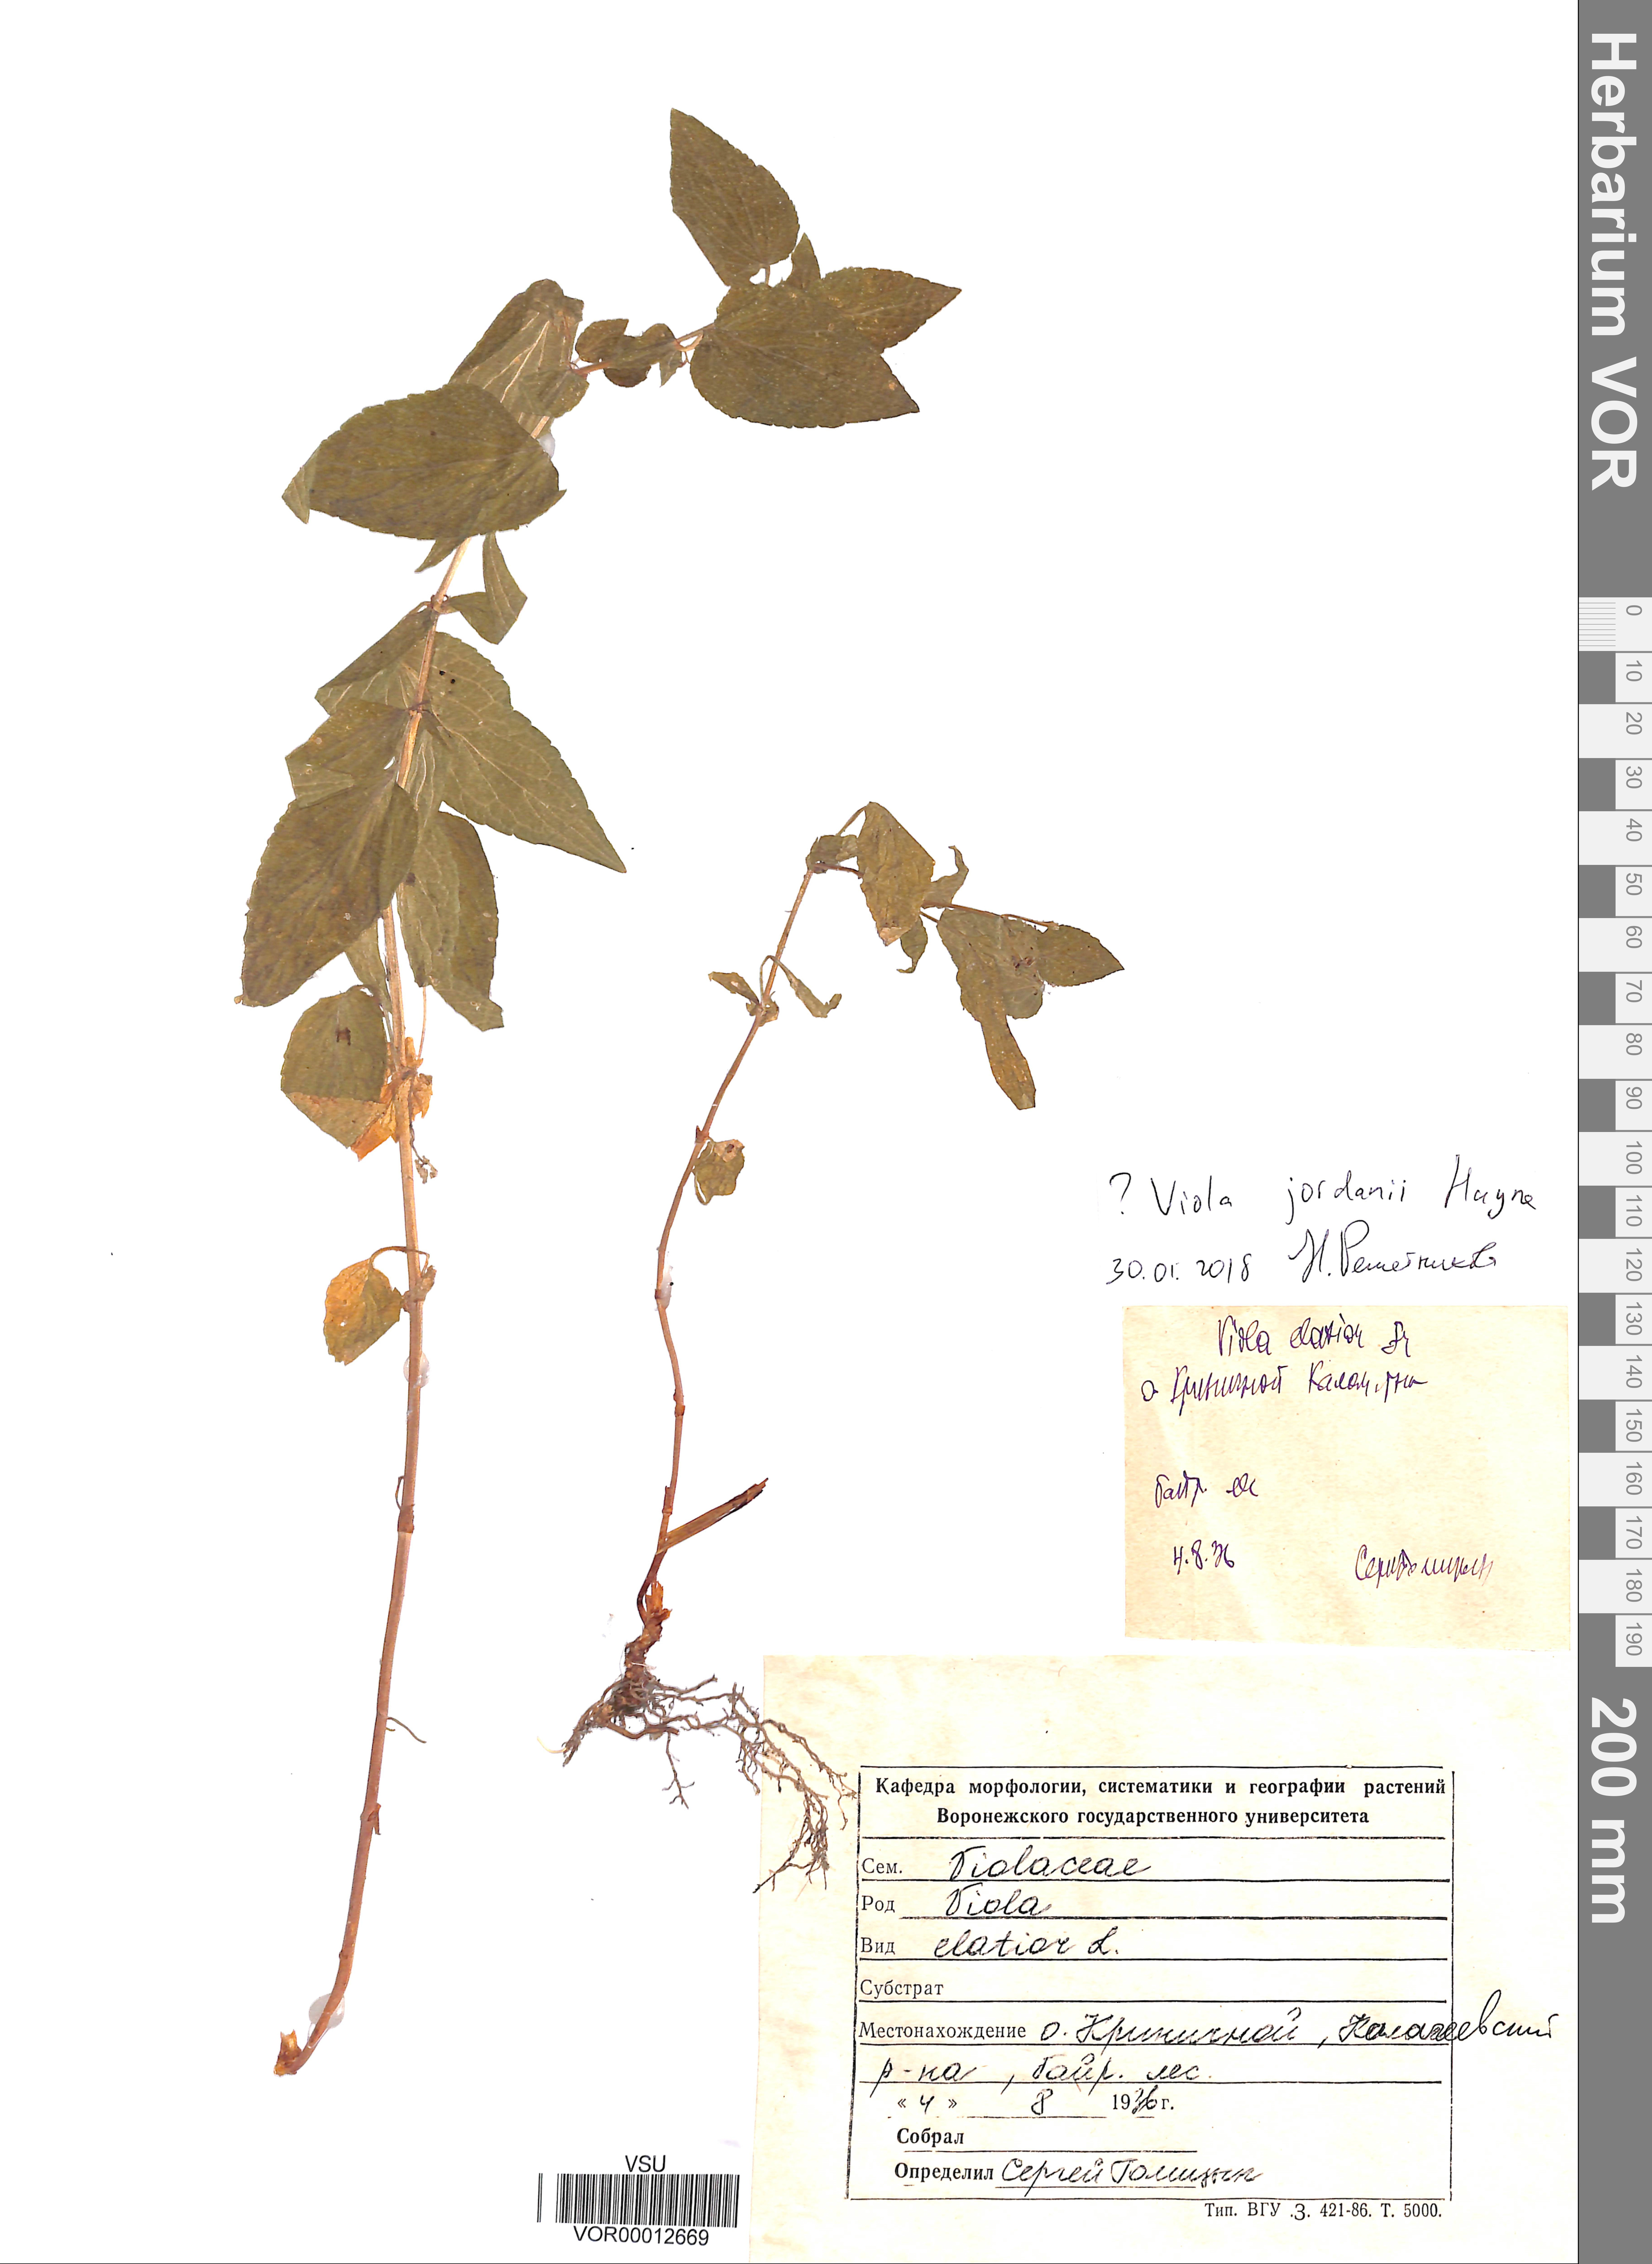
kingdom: Plantae
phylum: Tracheophyta
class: Magnoliopsida
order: Malpighiales
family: Violaceae
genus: Viola
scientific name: Viola jordanii
